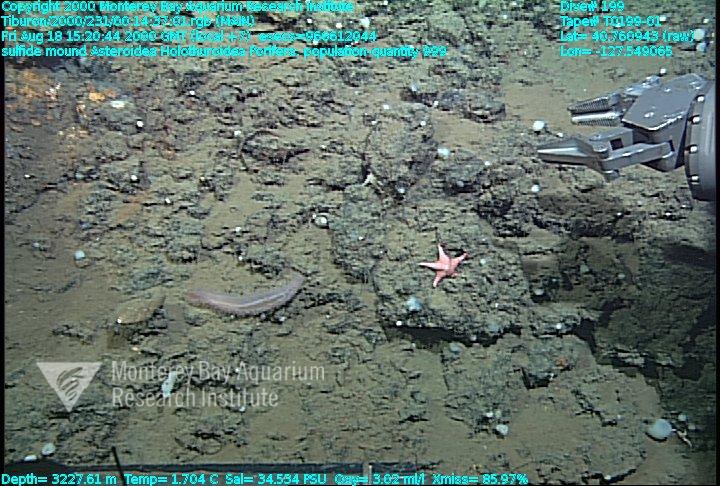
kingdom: Animalia
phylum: Porifera
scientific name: Porifera
